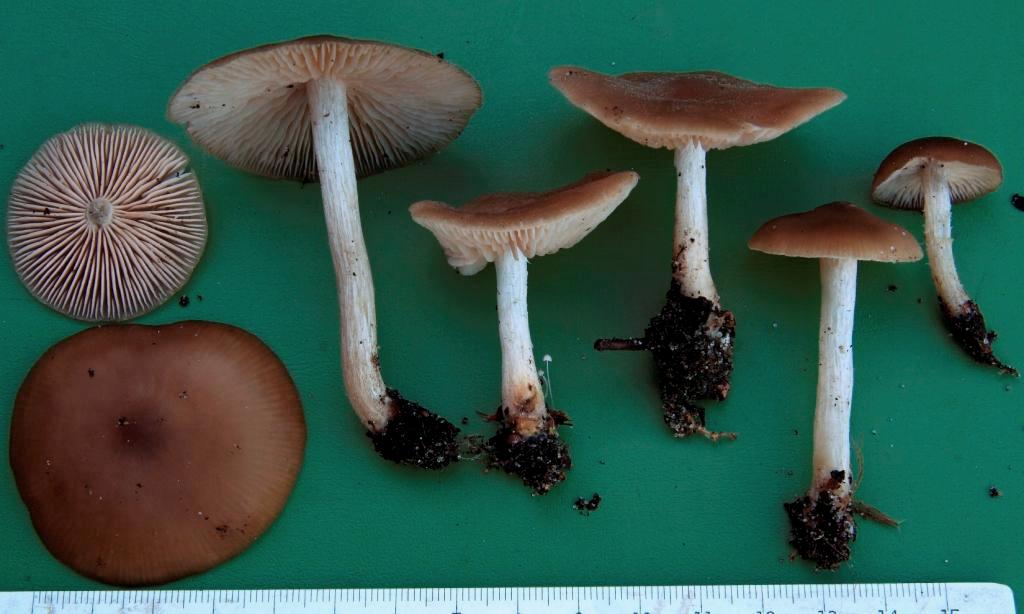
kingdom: Fungi
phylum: Basidiomycota
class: Agaricomycetes
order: Agaricales
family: Entolomataceae
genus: Entoloma
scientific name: Entoloma sericatum
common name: rank rødblad
